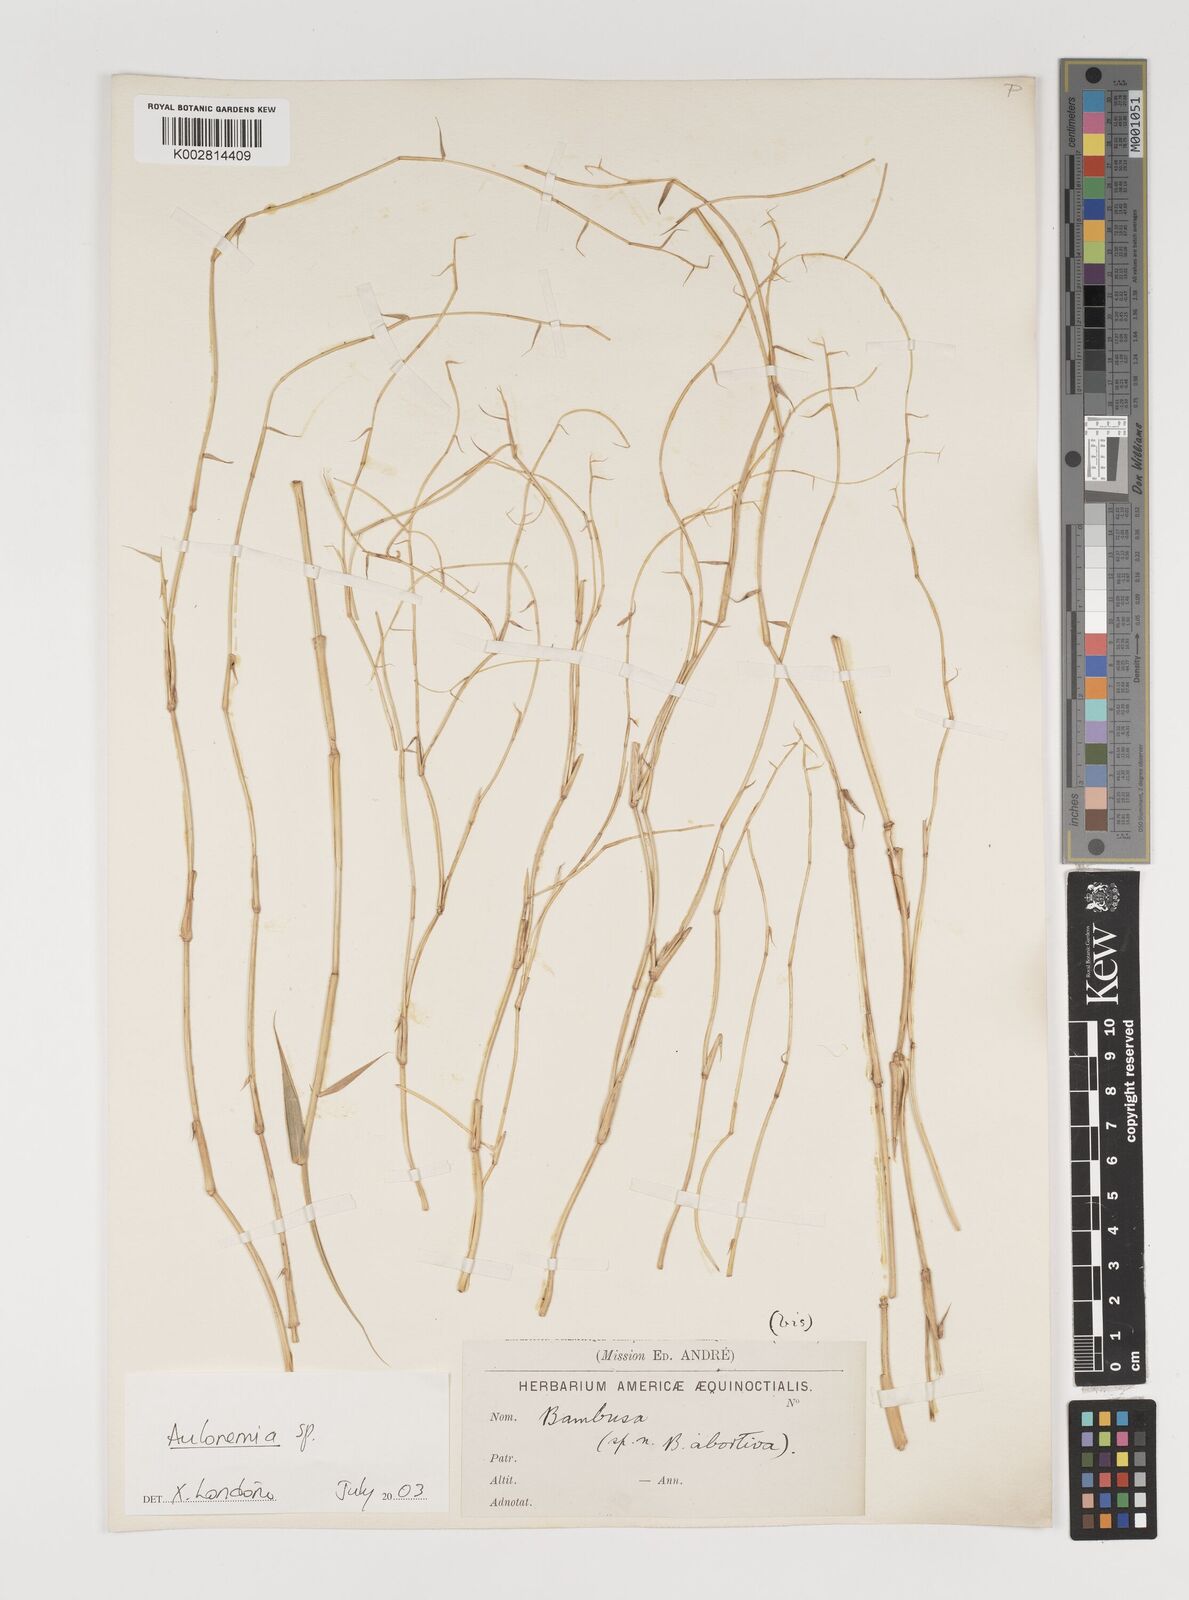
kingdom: Plantae
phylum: Tracheophyta
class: Liliopsida
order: Poales
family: Poaceae
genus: Aulonemia
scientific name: Aulonemia
